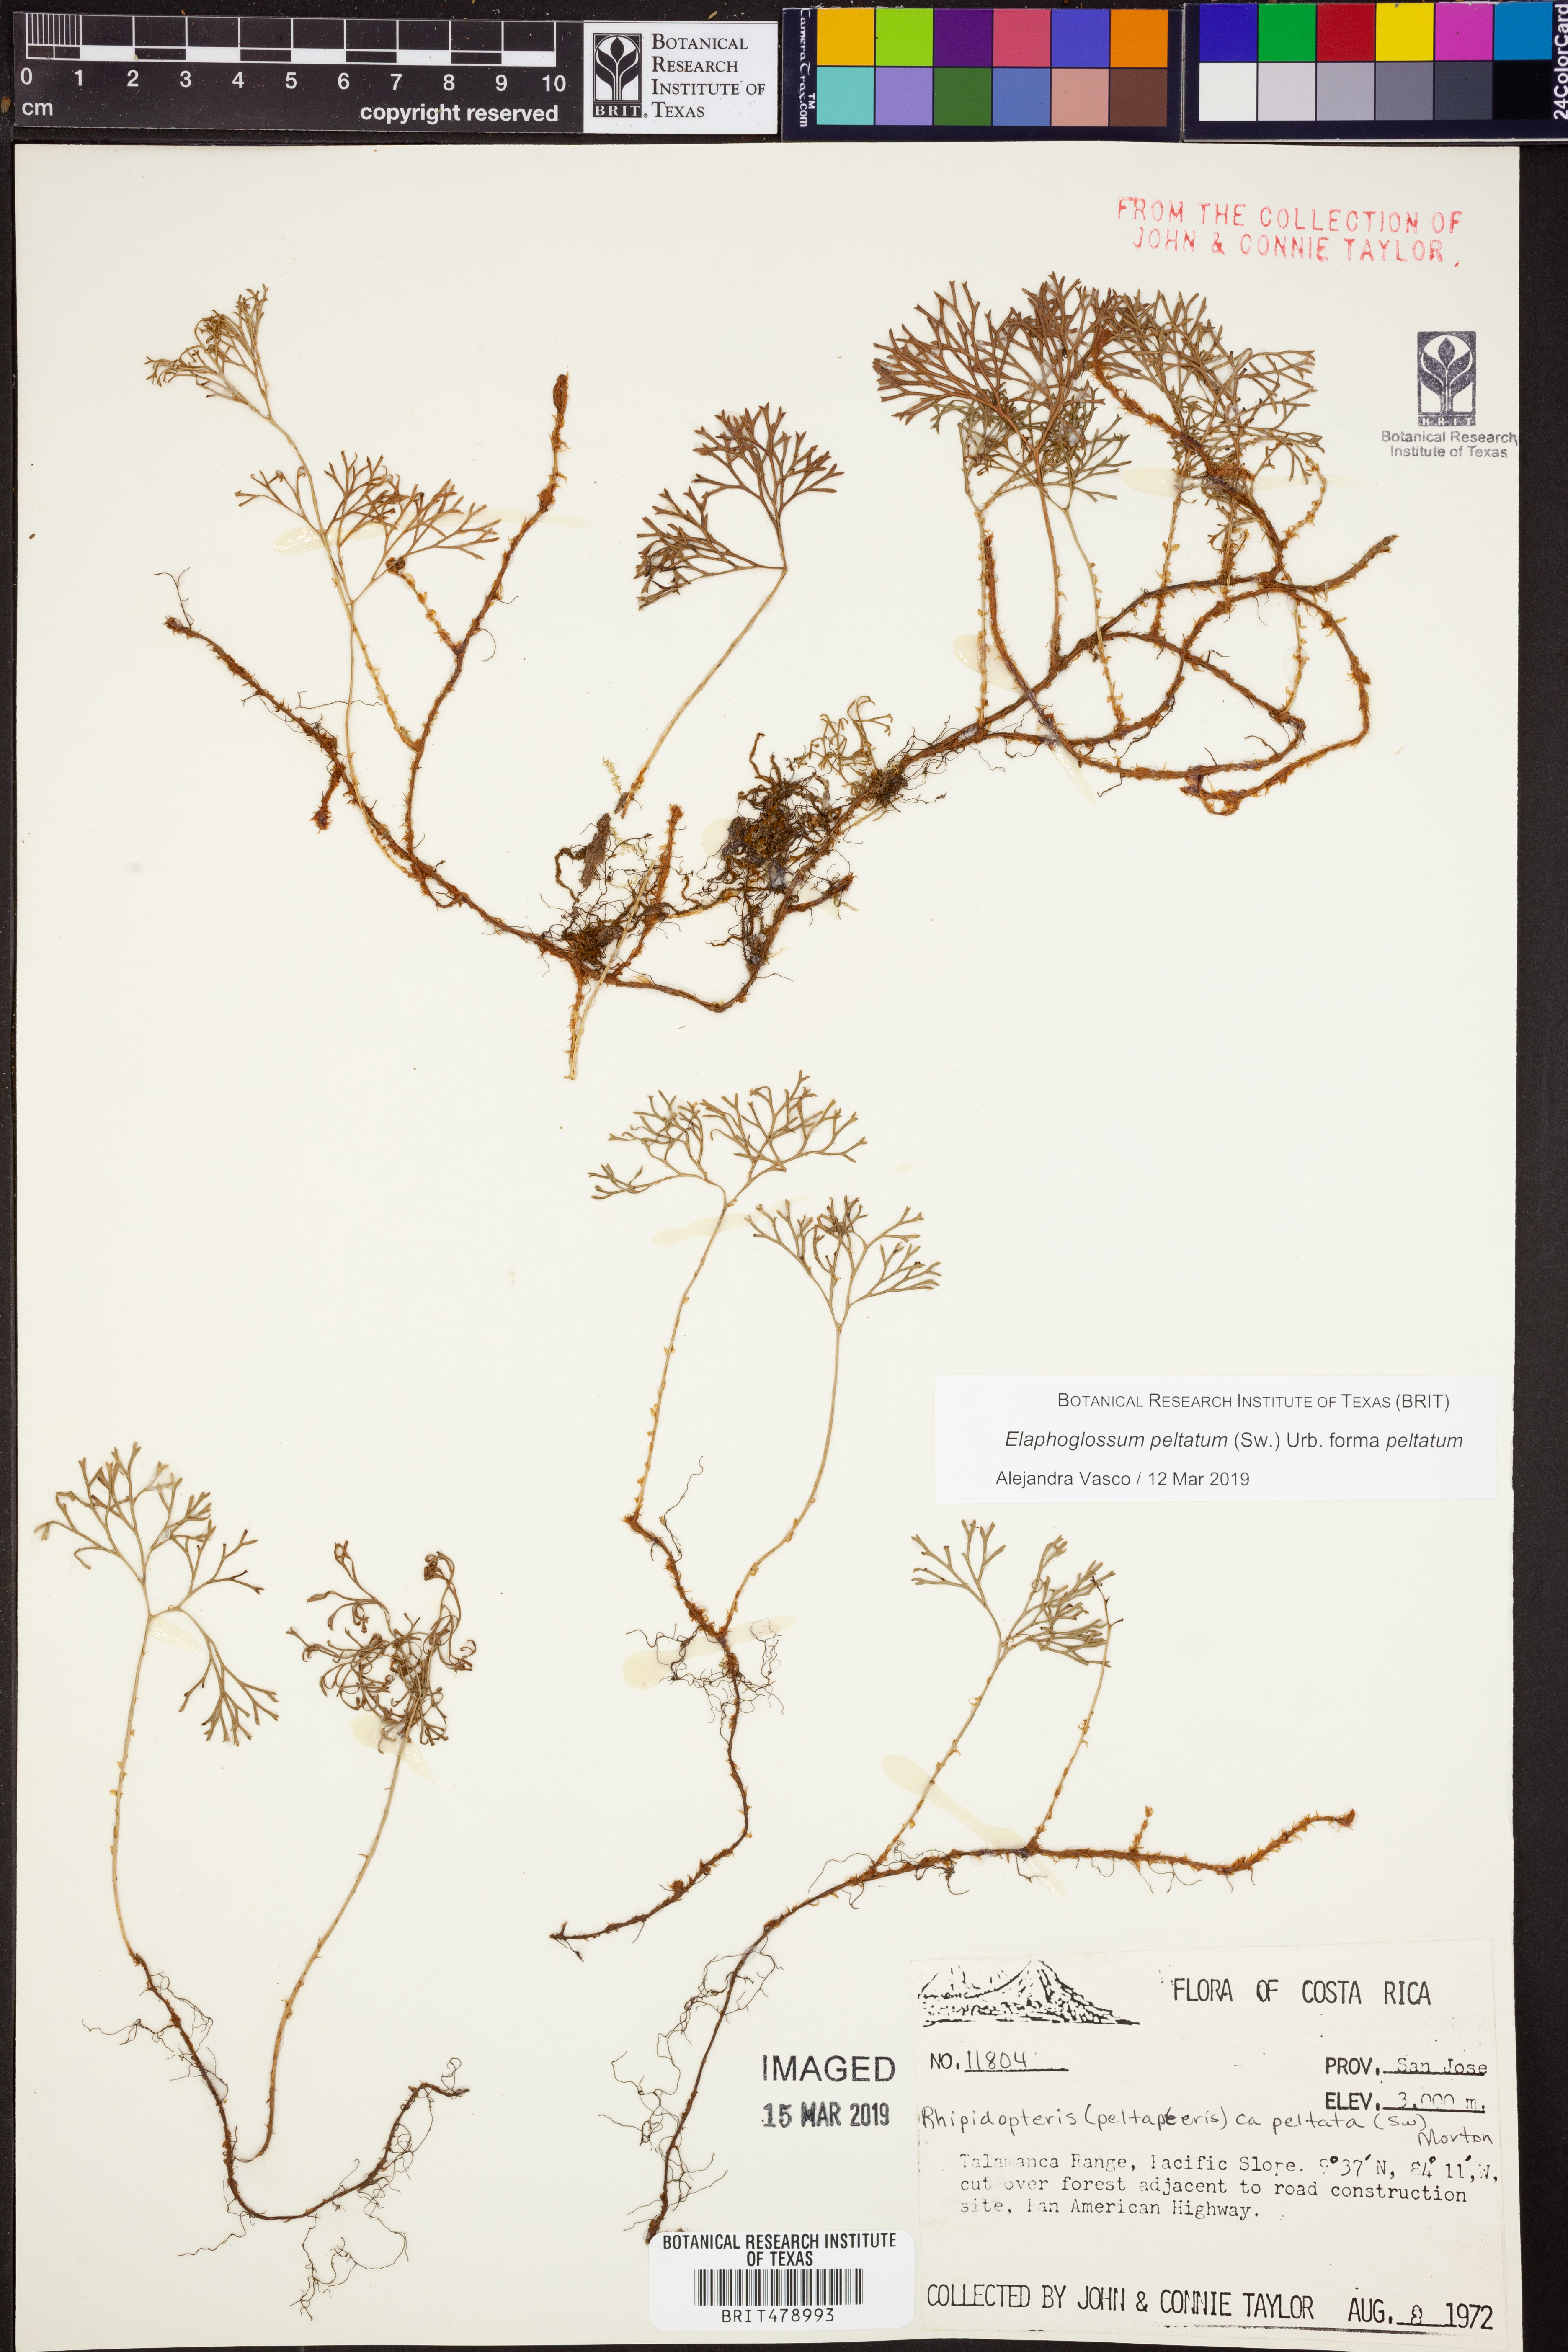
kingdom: Plantae
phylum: Tracheophyta
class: Polypodiopsida
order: Polypodiales
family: Dryopteridaceae
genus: Elaphoglossum
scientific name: Elaphoglossum peltatum
